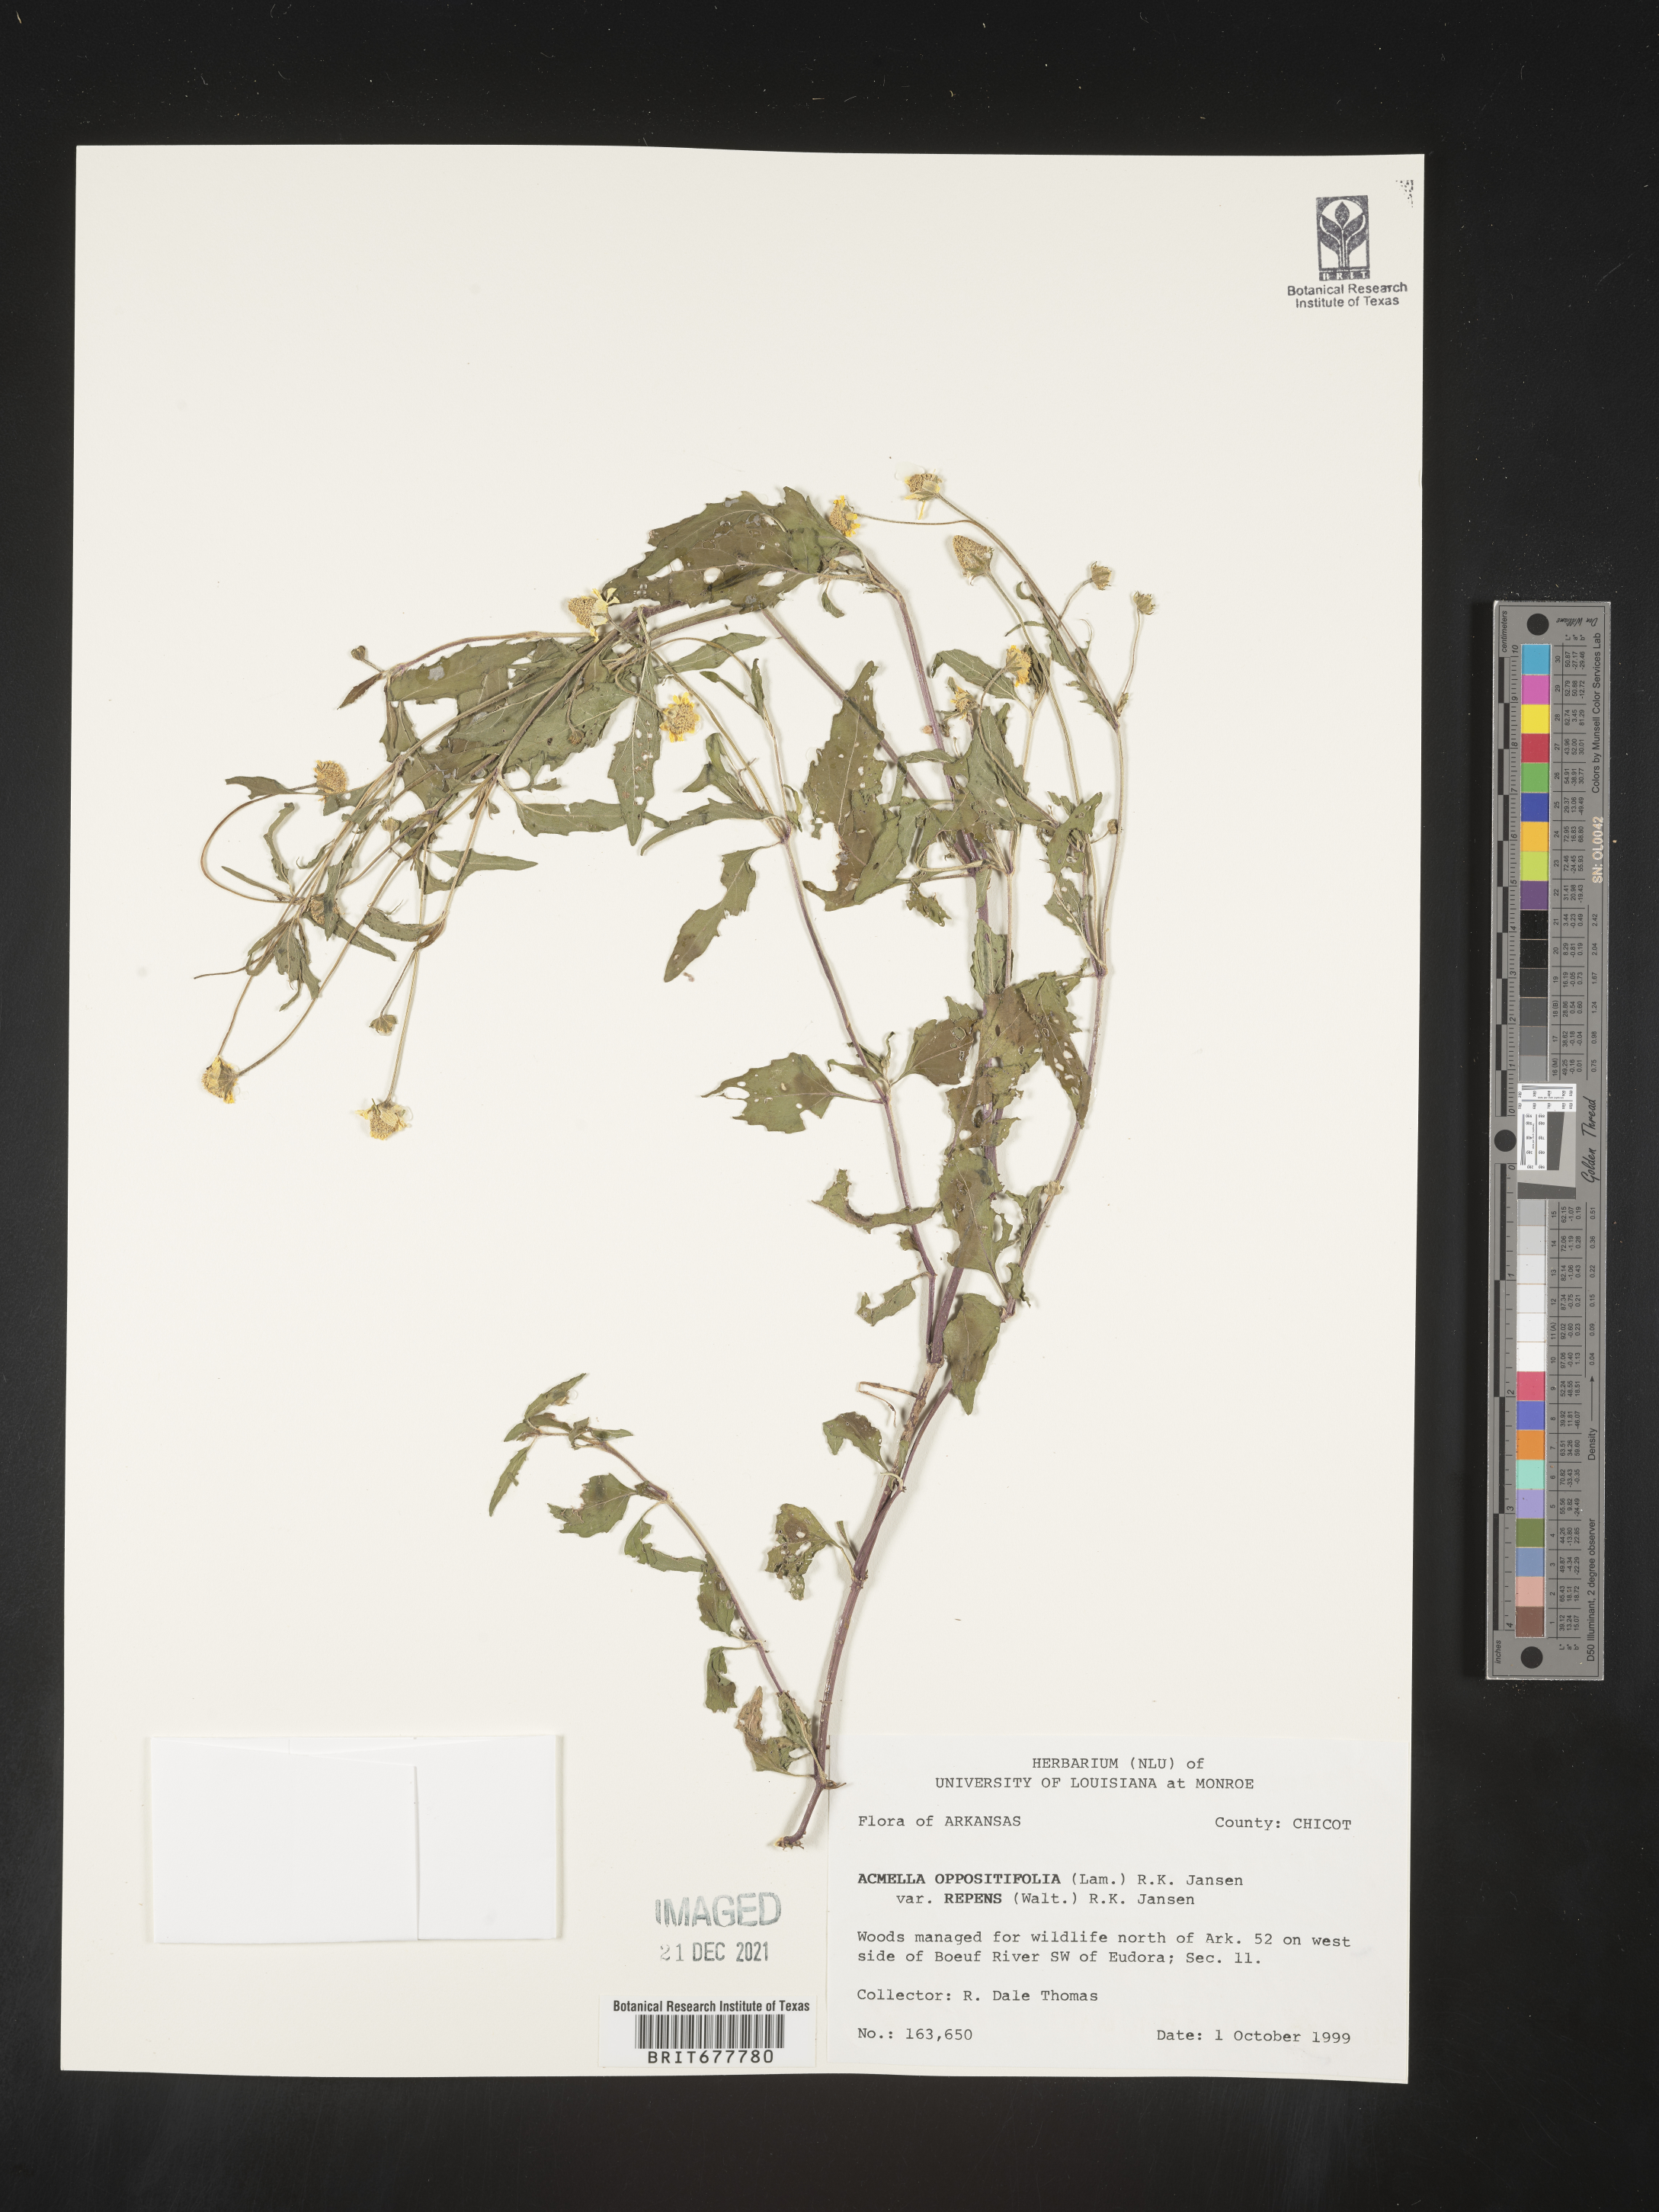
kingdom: Plantae
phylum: Tracheophyta
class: Magnoliopsida
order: Asterales
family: Asteraceae
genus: Spilanthes
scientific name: Spilanthes
